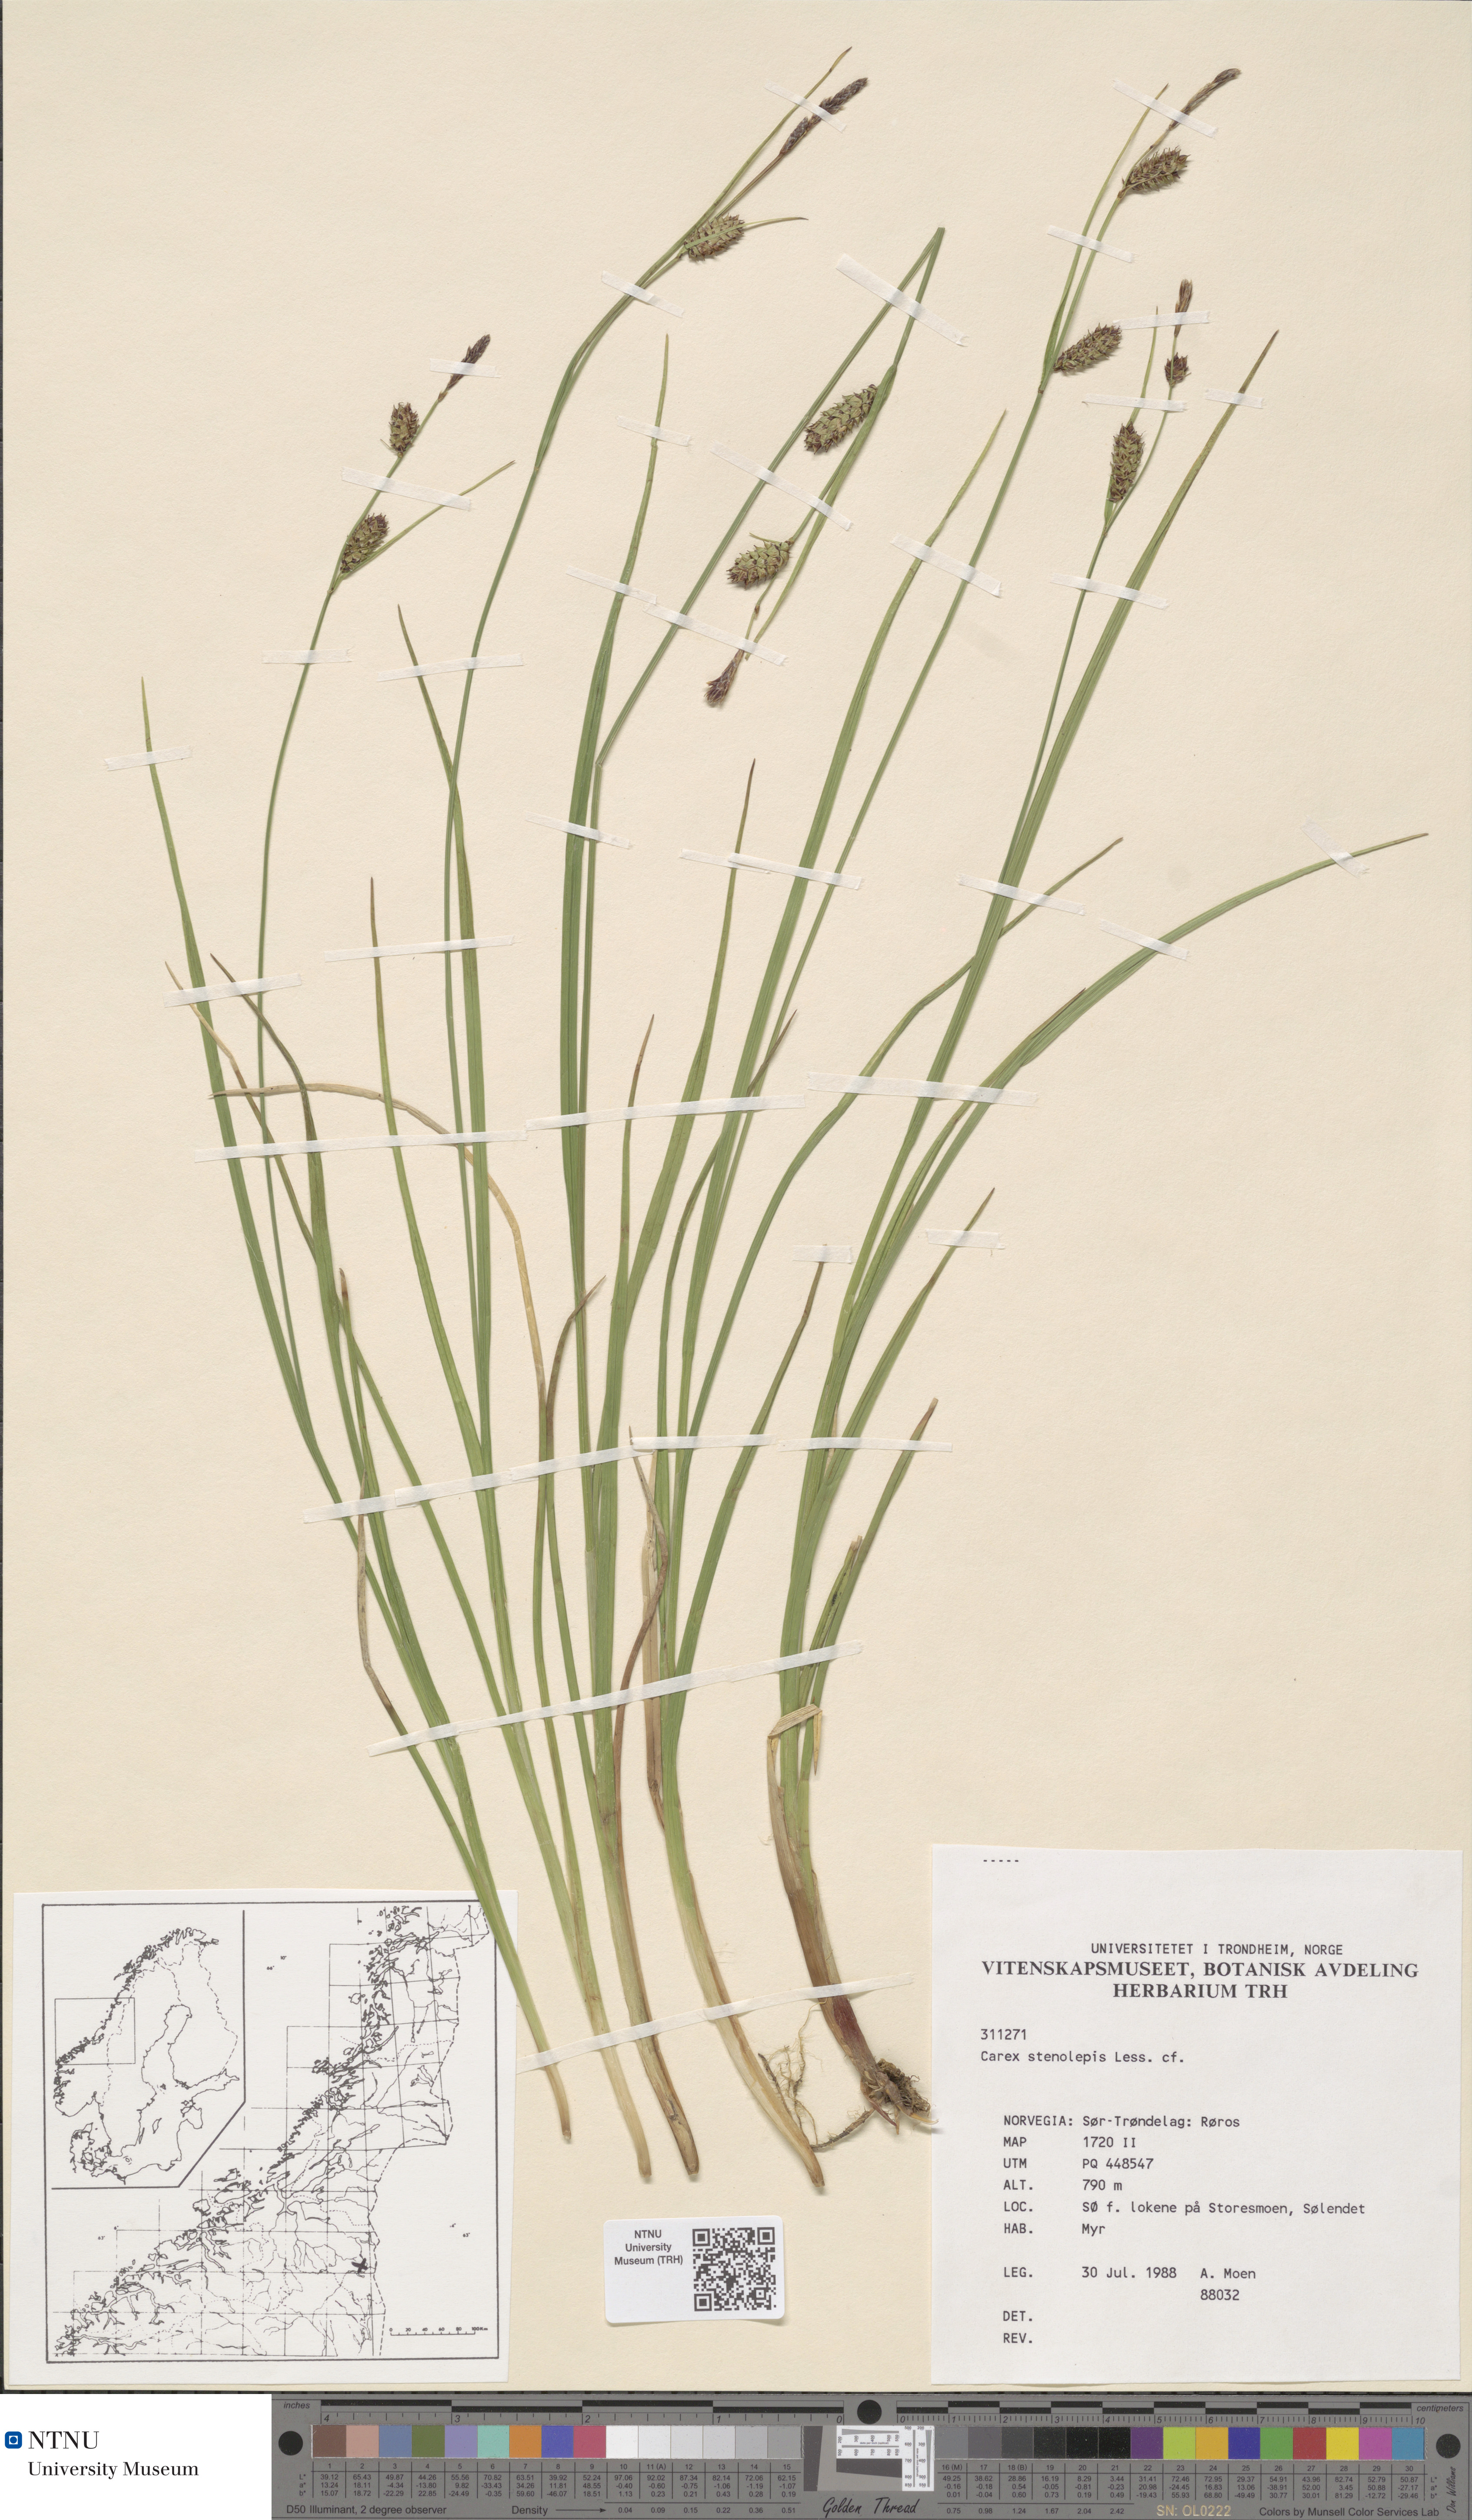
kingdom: Plantae
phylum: Tracheophyta
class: Liliopsida
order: Poales
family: Cyperaceae
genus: Carex
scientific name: Carex grahamii
